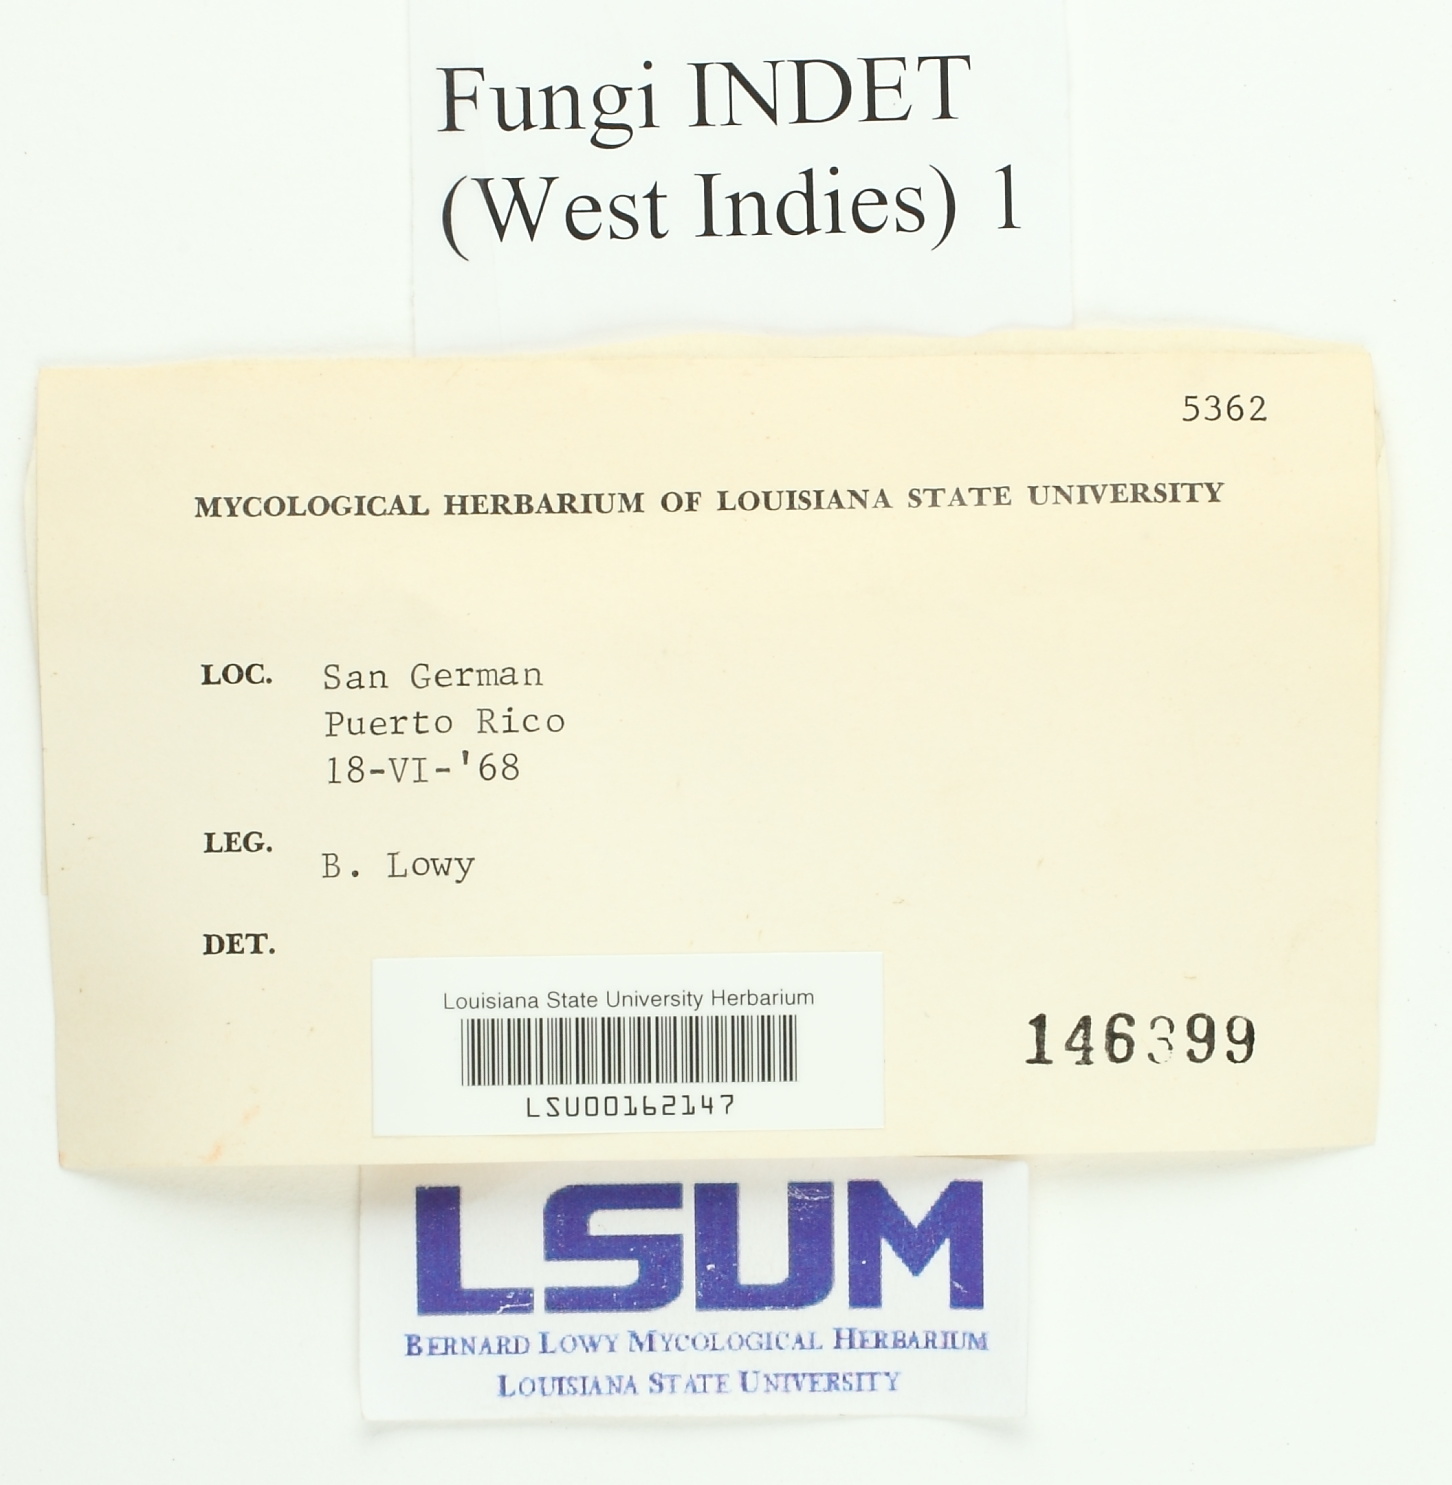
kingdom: Fungi
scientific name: Fungi
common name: Fungi
